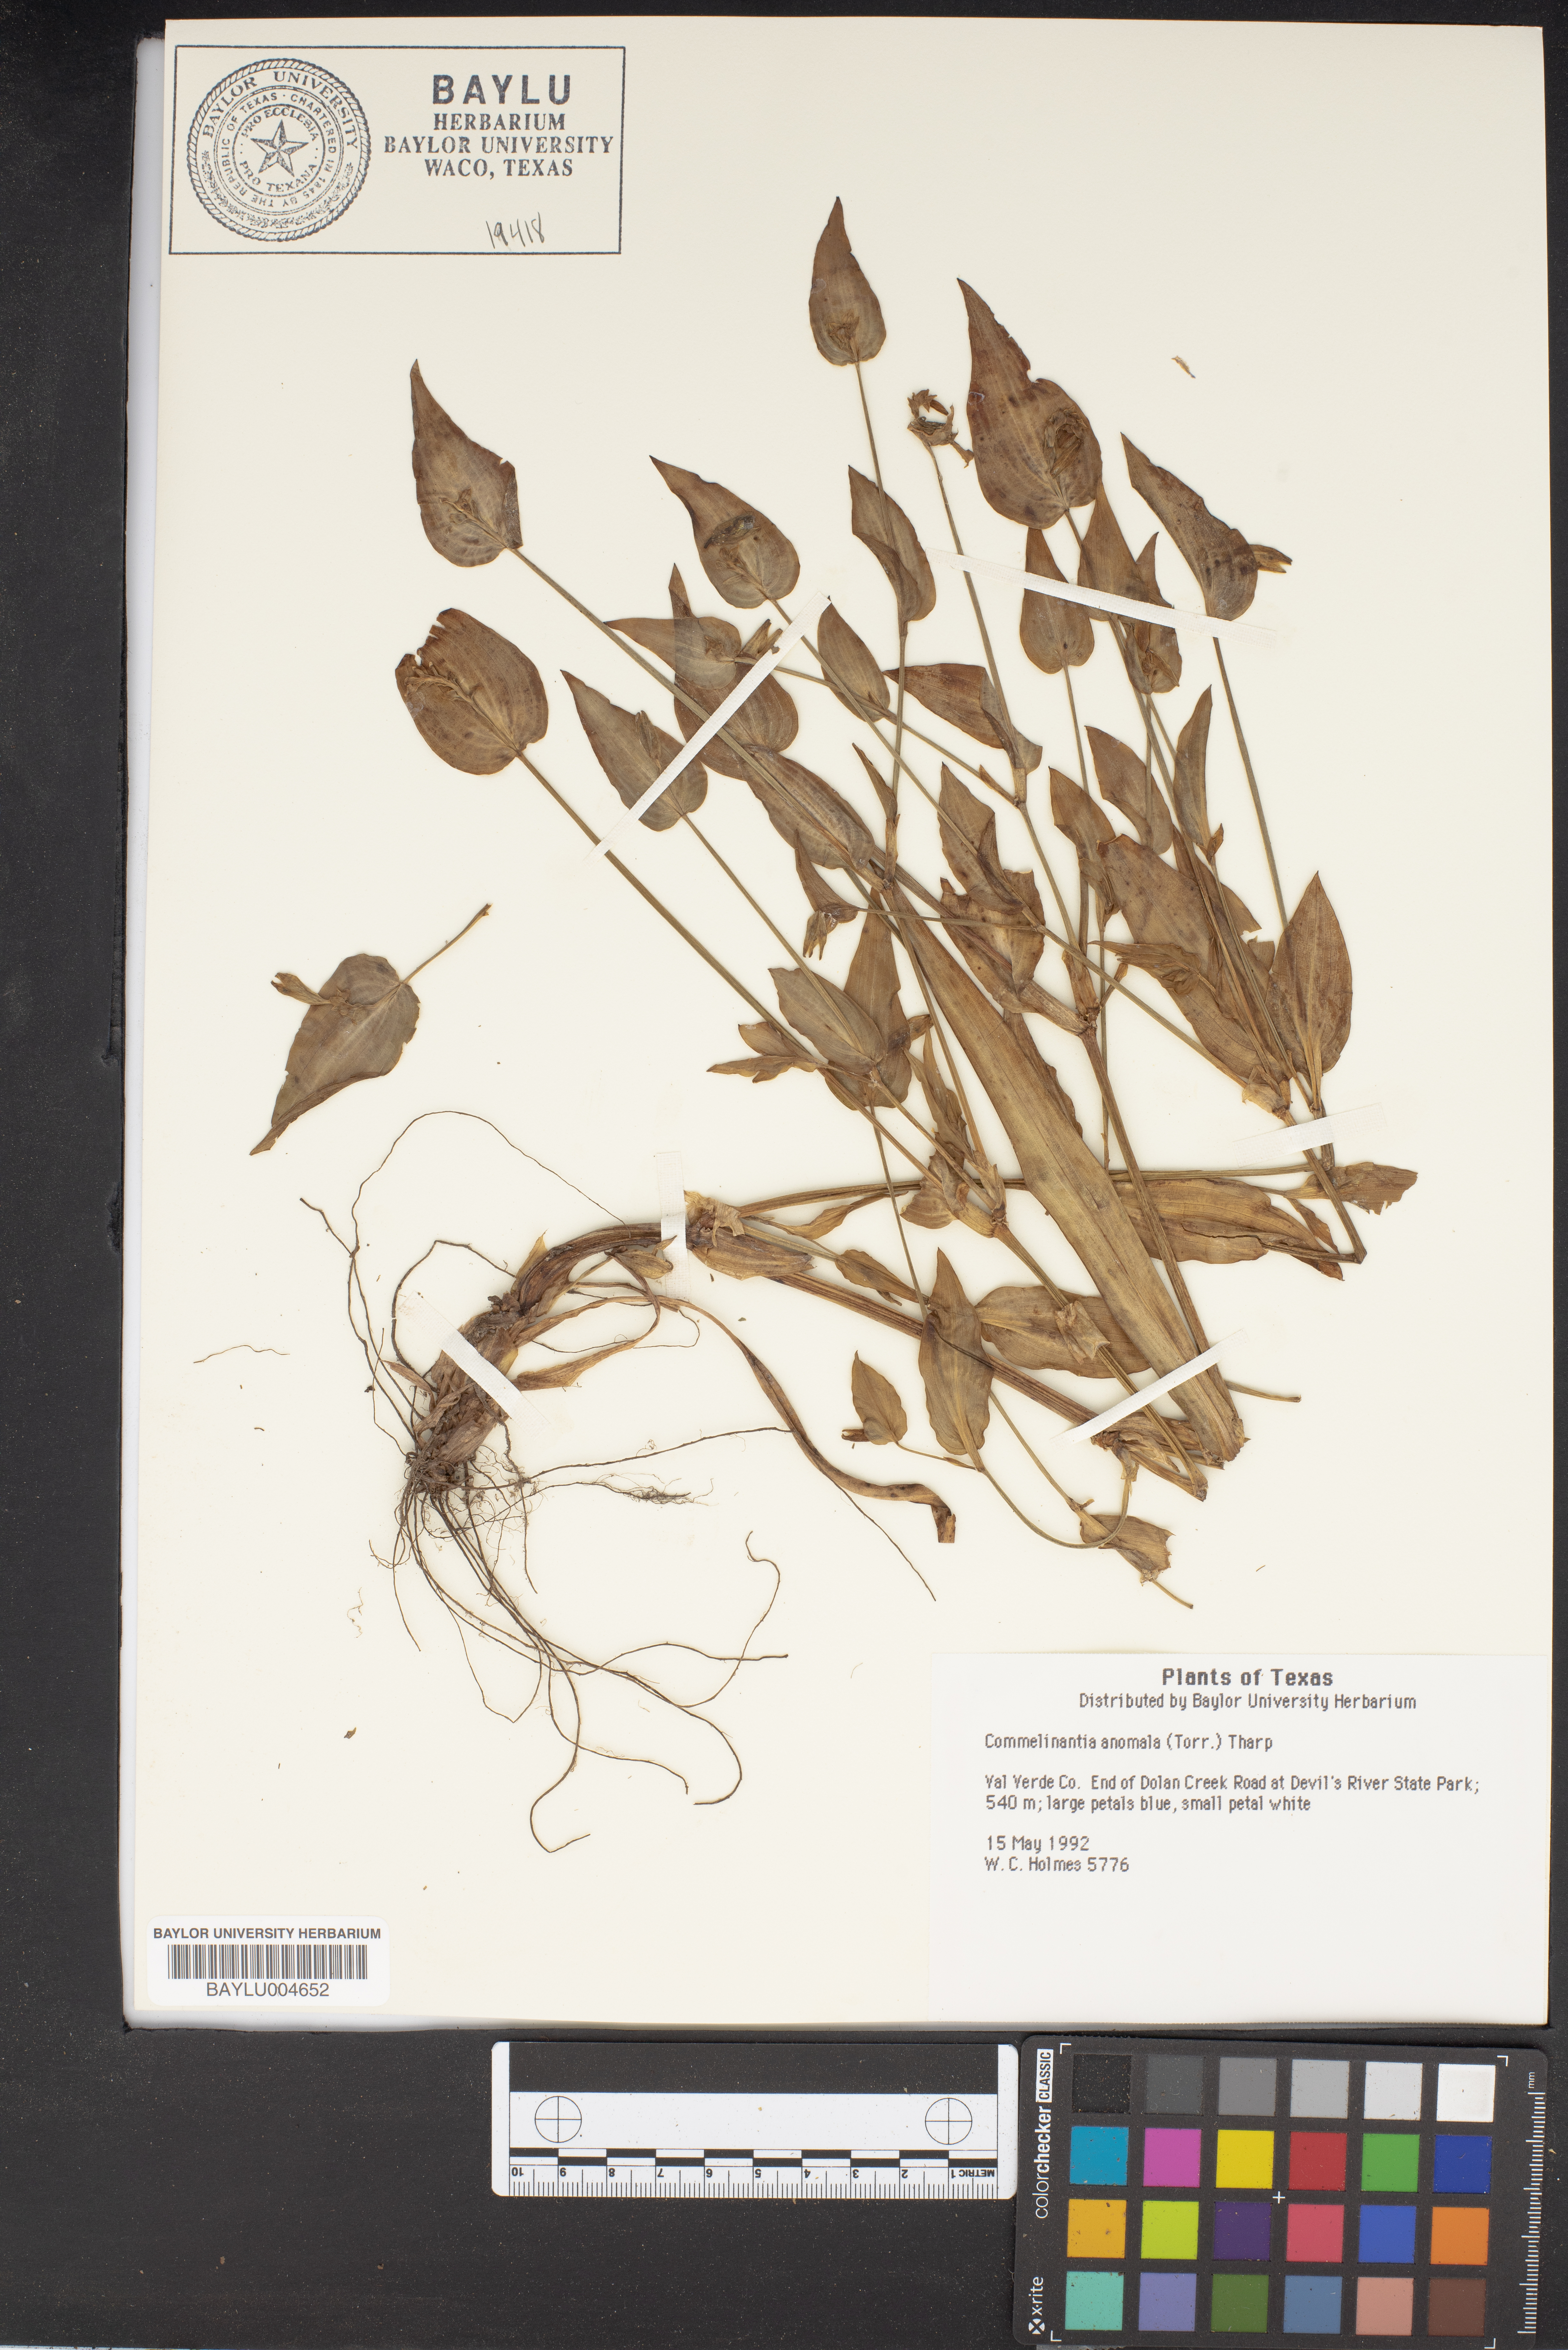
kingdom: Plantae
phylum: Tracheophyta
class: Liliopsida
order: Commelinales
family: Commelinaceae
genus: Tinantia
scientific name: Tinantia anomala
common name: False dayflower
